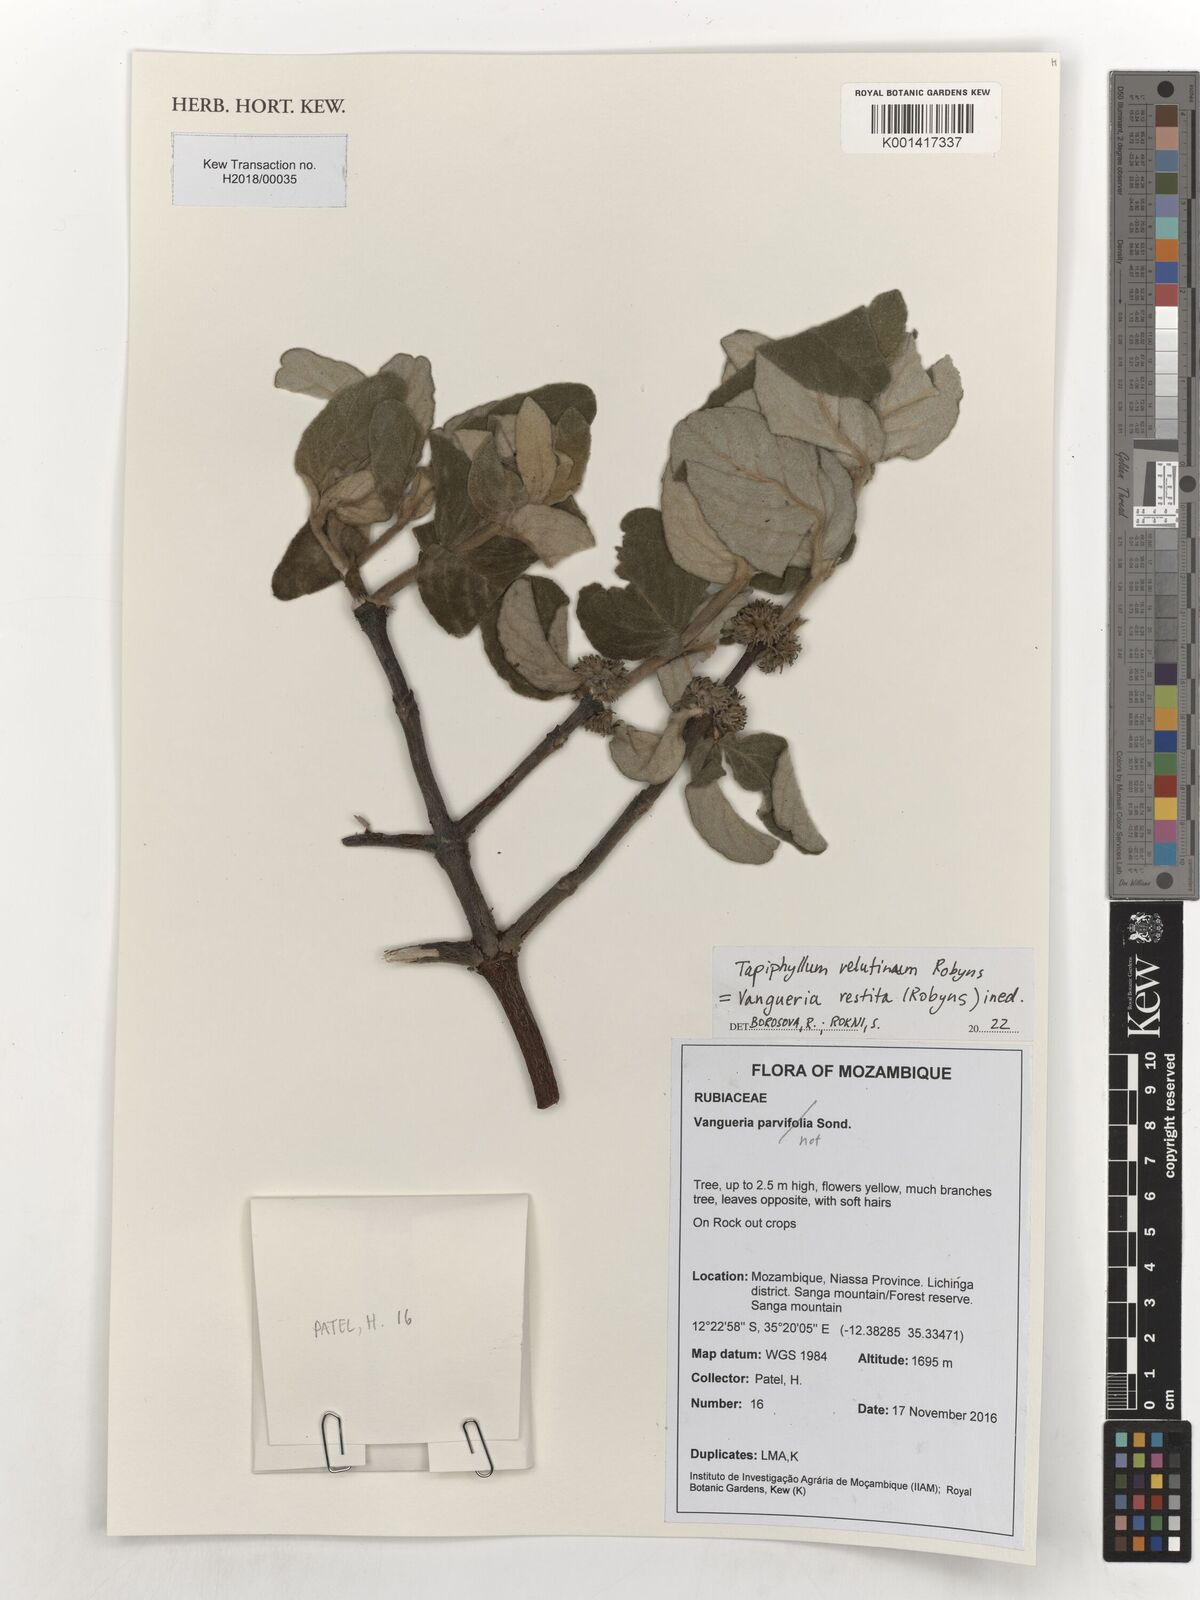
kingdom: Plantae
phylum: Tracheophyta
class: Magnoliopsida
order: Gentianales
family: Rubiaceae
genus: Vangueria
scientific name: Vangueria vestita
